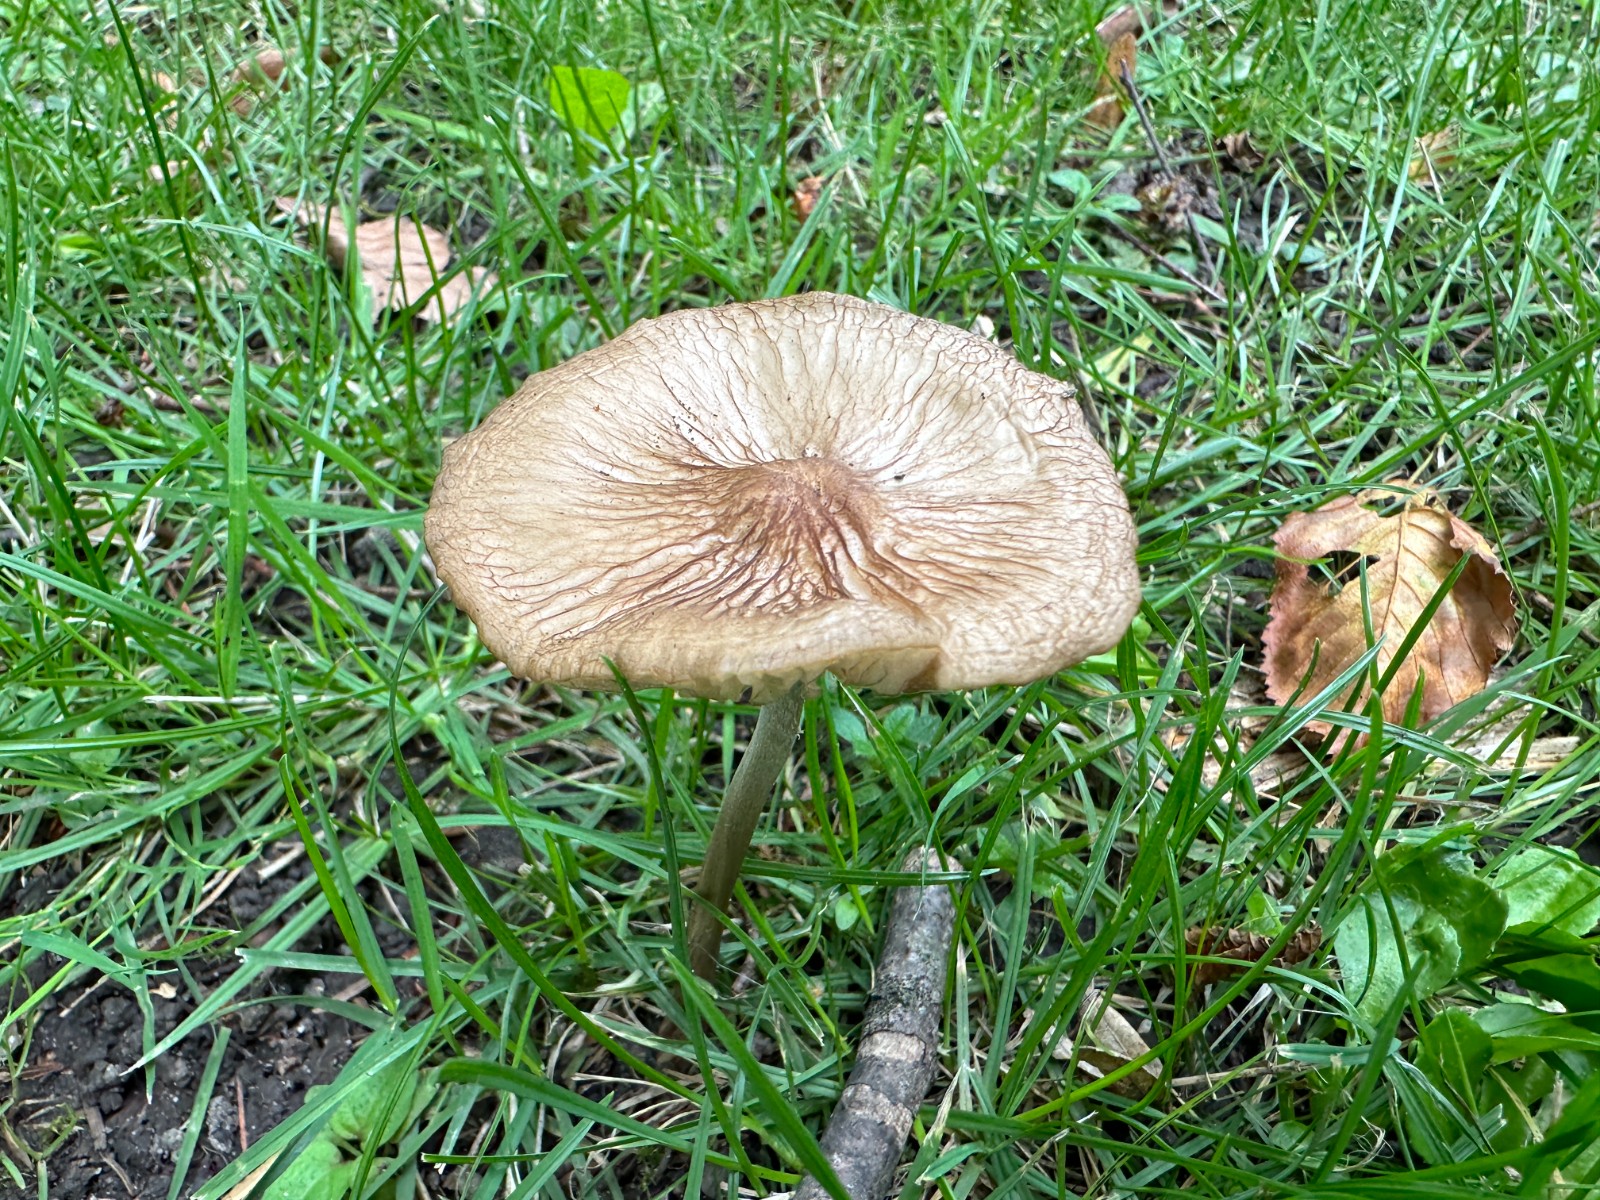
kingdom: Fungi
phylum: Basidiomycota
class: Agaricomycetes
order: Agaricales
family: Physalacriaceae
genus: Hymenopellis
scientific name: Hymenopellis radicata
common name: almindelig pælerodshat
